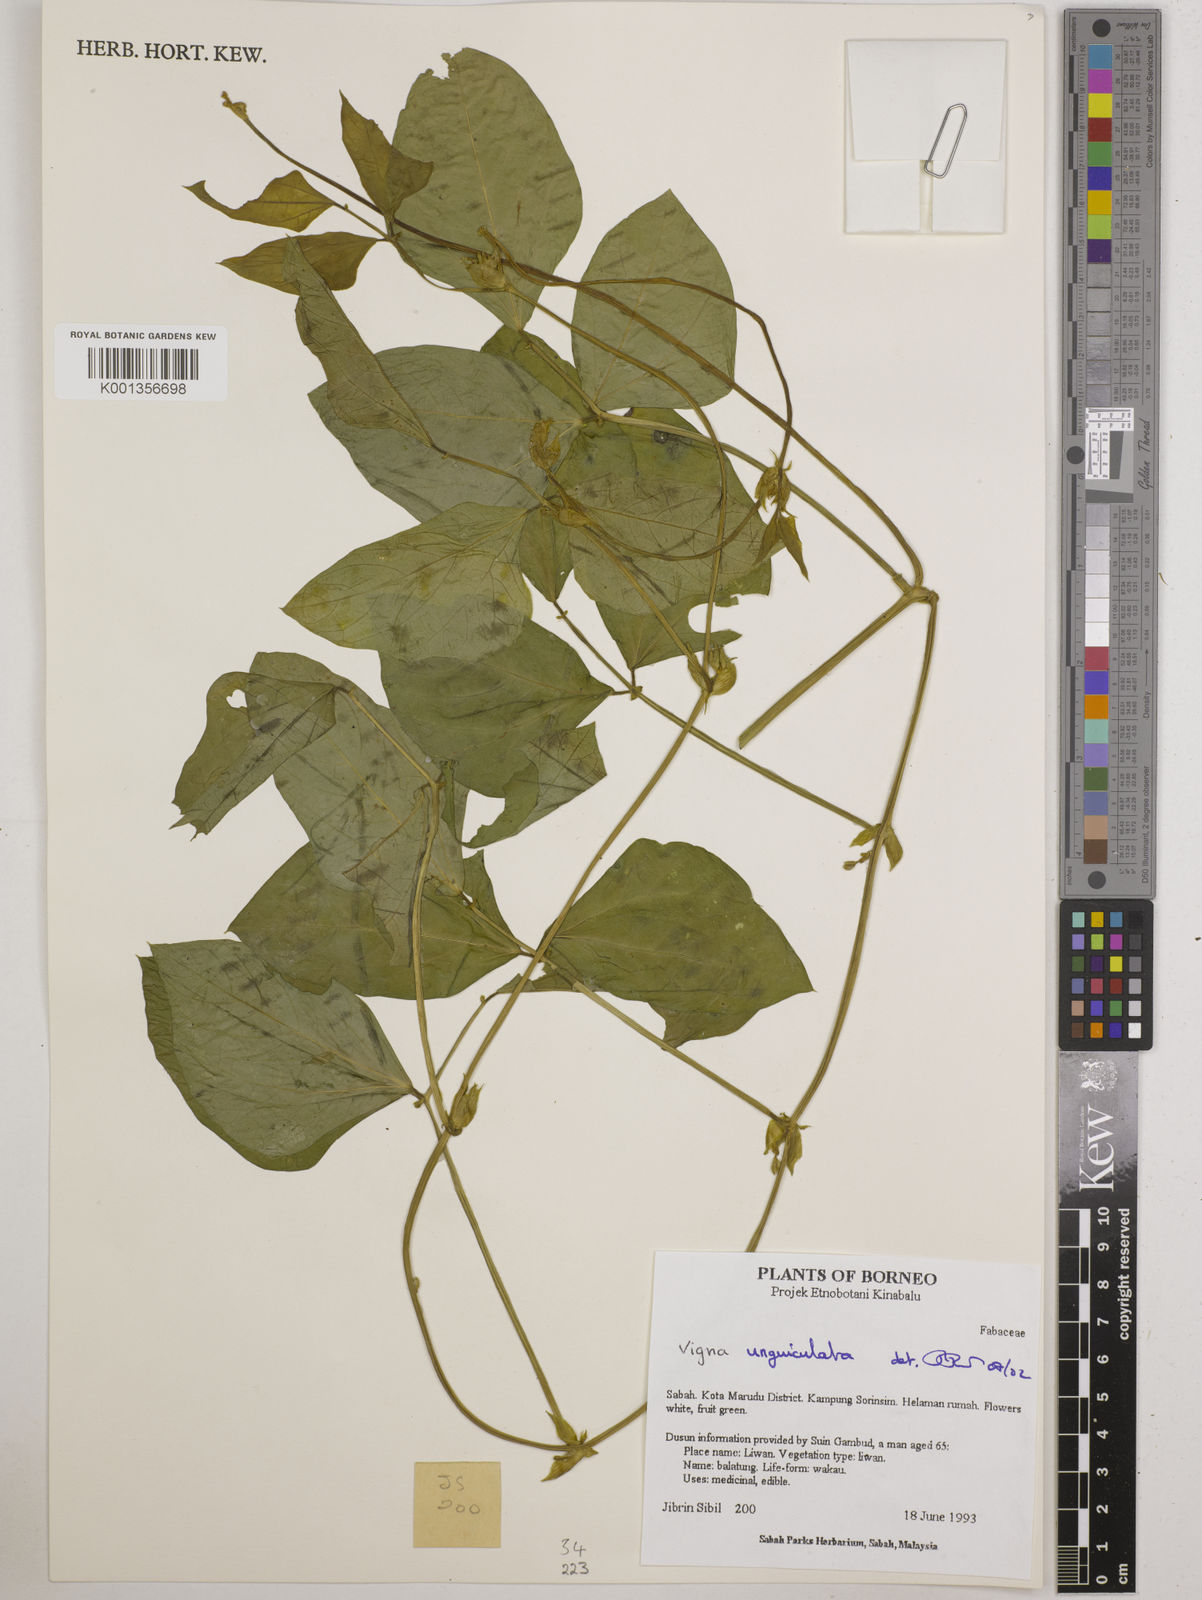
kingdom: Plantae
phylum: Tracheophyta
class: Magnoliopsida
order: Fabales
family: Fabaceae
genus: Vigna
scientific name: Vigna unguiculata
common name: Cowpea
